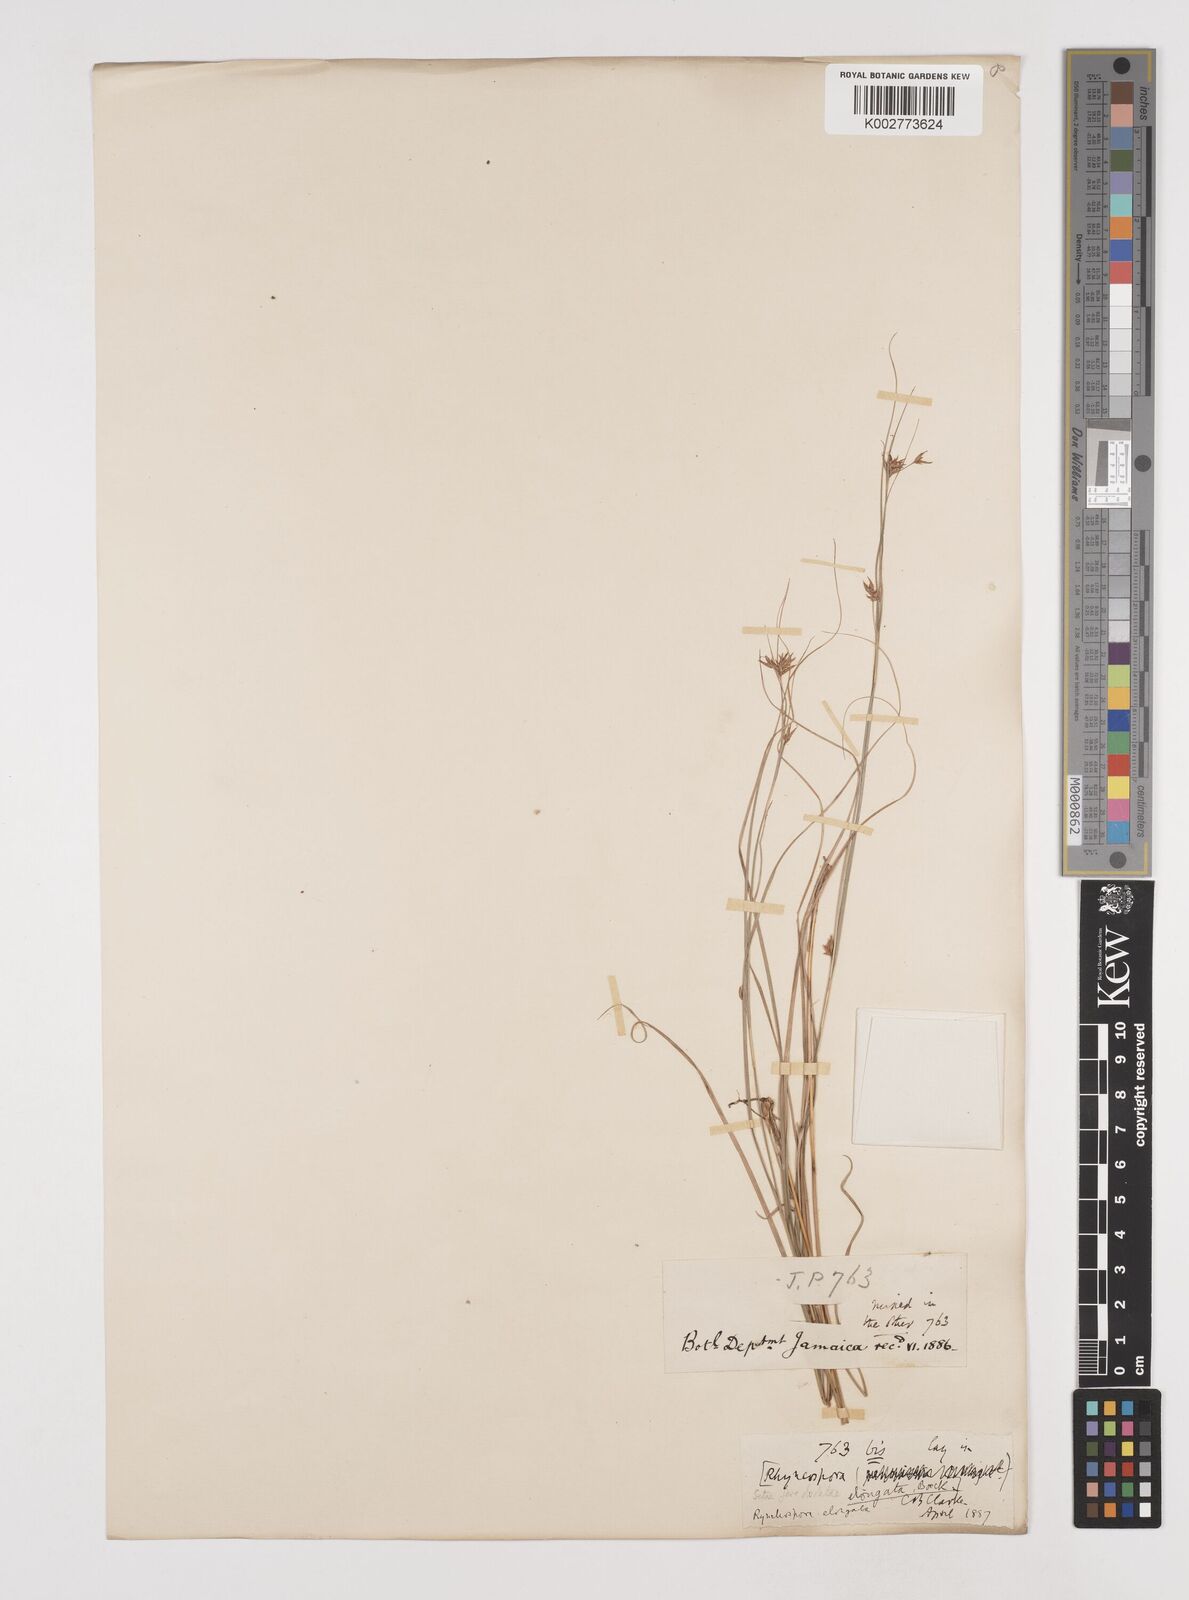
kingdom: Plantae
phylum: Tracheophyta
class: Liliopsida
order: Poales
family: Cyperaceae
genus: Rhynchospora
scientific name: Rhynchospora biflora
